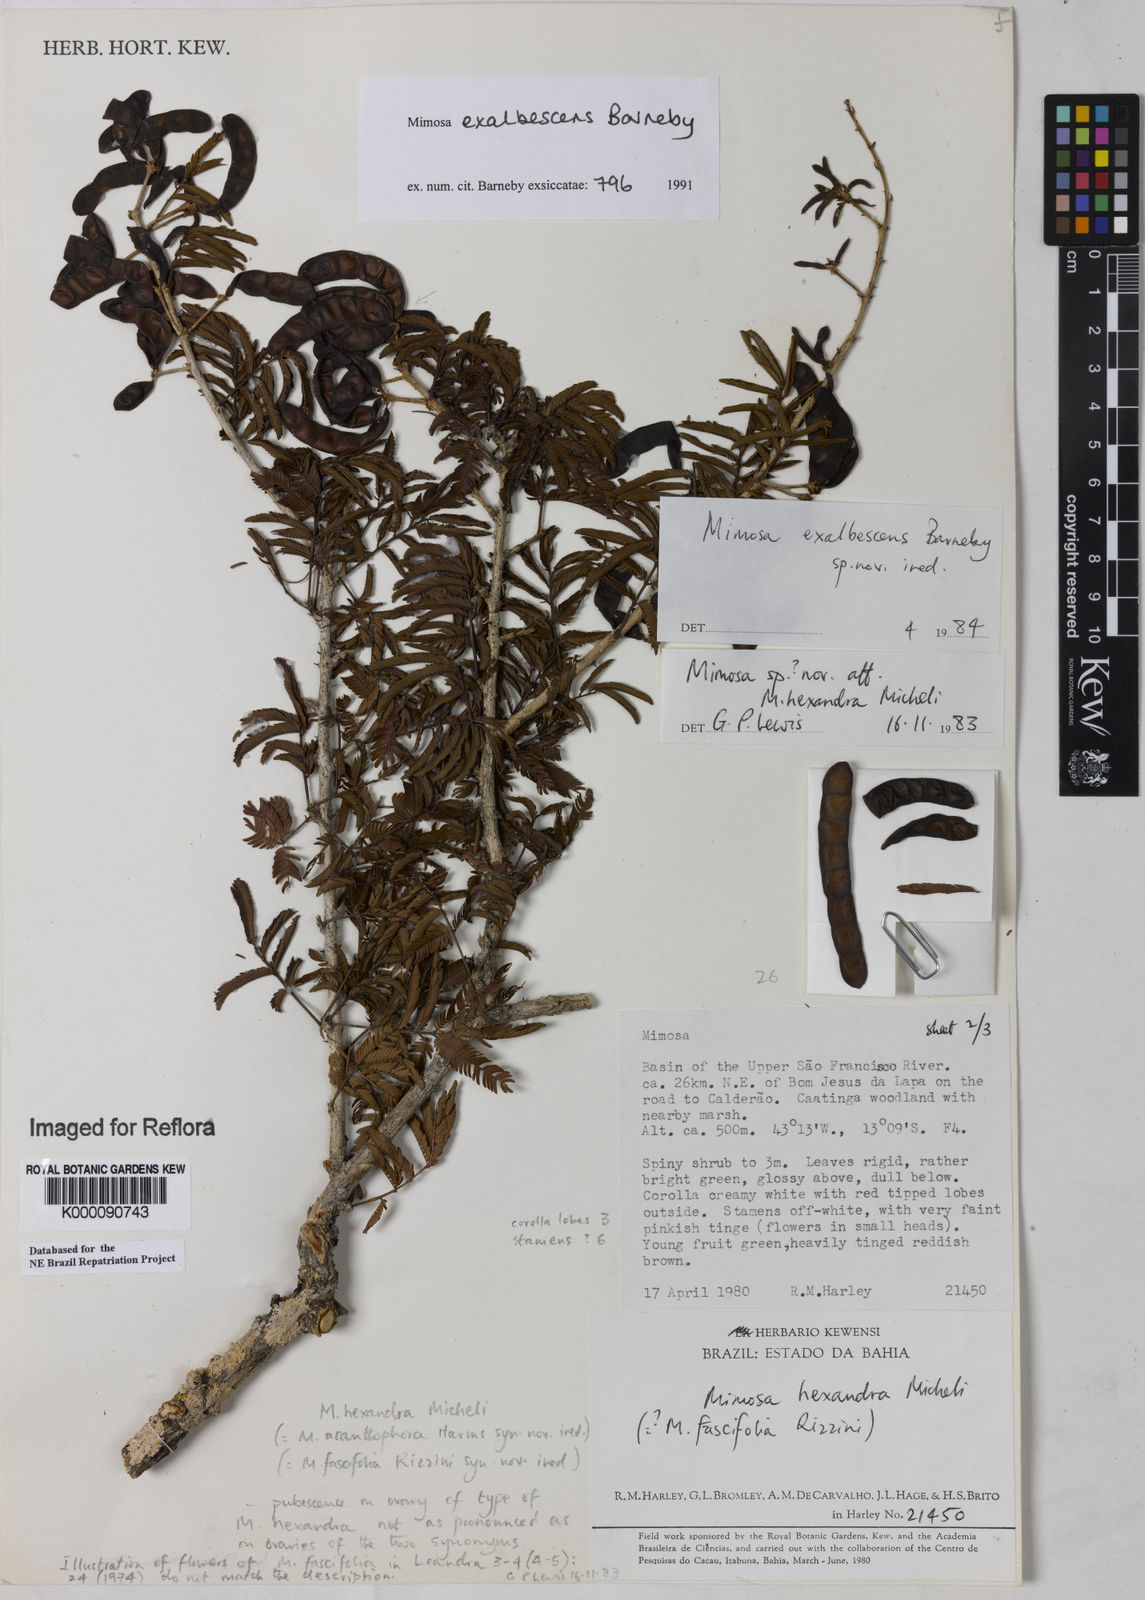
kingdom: Plantae
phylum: Tracheophyta
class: Magnoliopsida
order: Fabales
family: Fabaceae
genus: Mimosa
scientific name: Mimosa exalbescens
